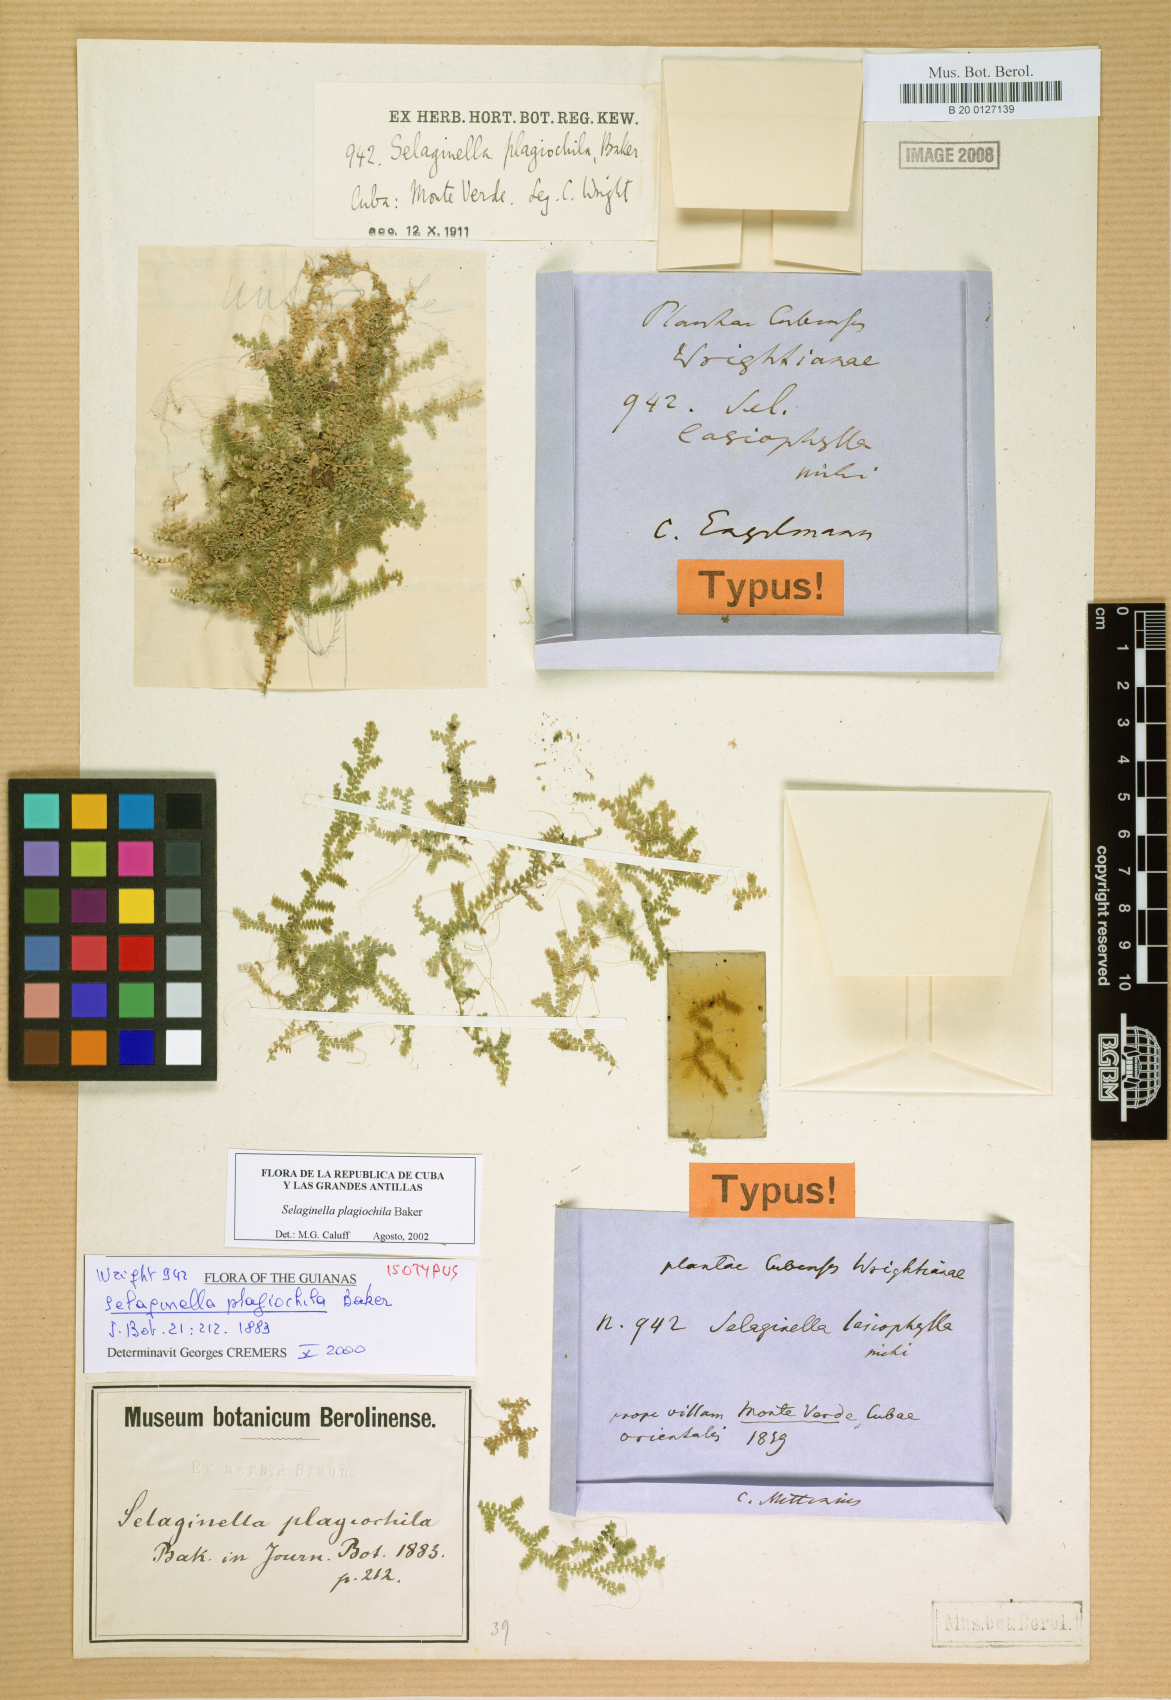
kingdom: Plantae
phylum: Tracheophyta
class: Lycopodiopsida
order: Selaginellales
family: Selaginellaceae
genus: Selaginella
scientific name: Selaginella plagiochila
